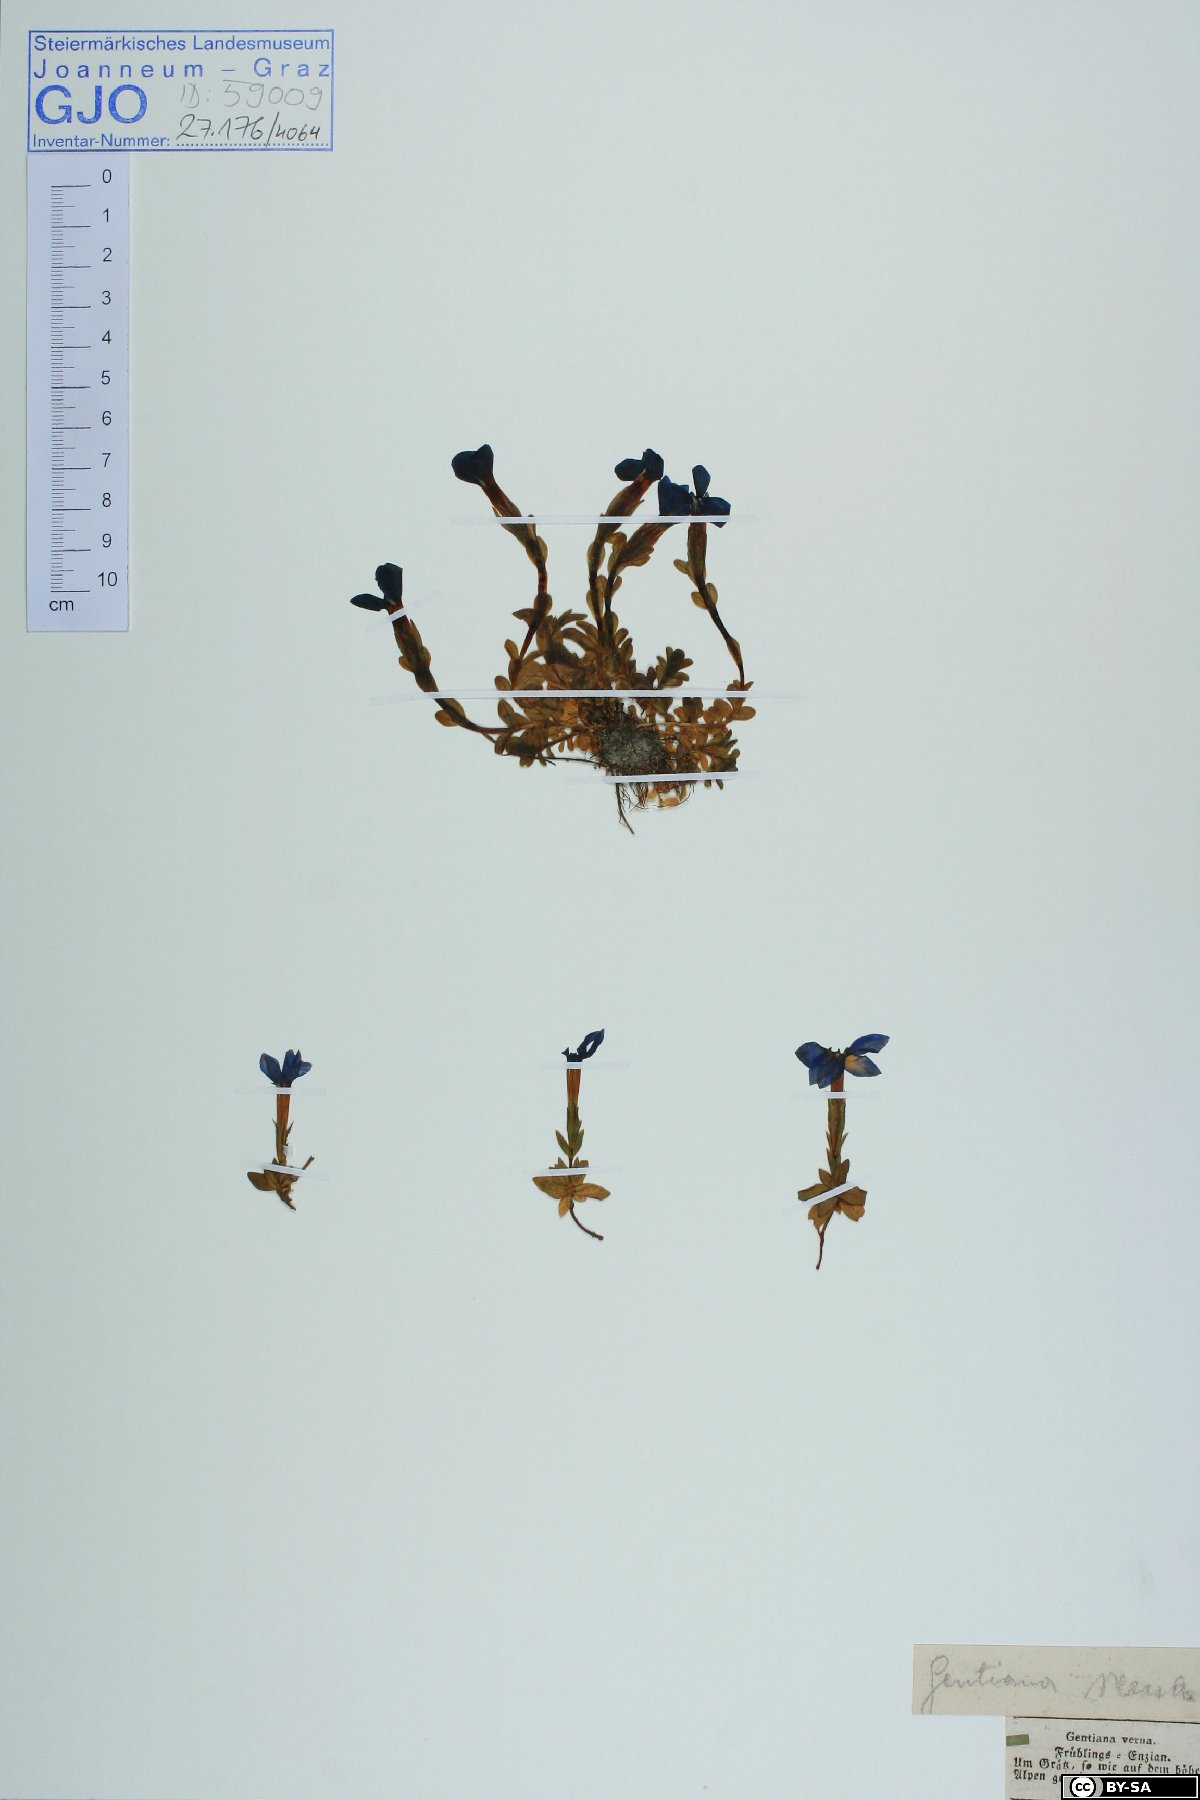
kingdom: Plantae
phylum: Tracheophyta
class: Magnoliopsida
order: Gentianales
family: Gentianaceae
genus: Gentiana
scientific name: Gentiana verna
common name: Spring gentian
